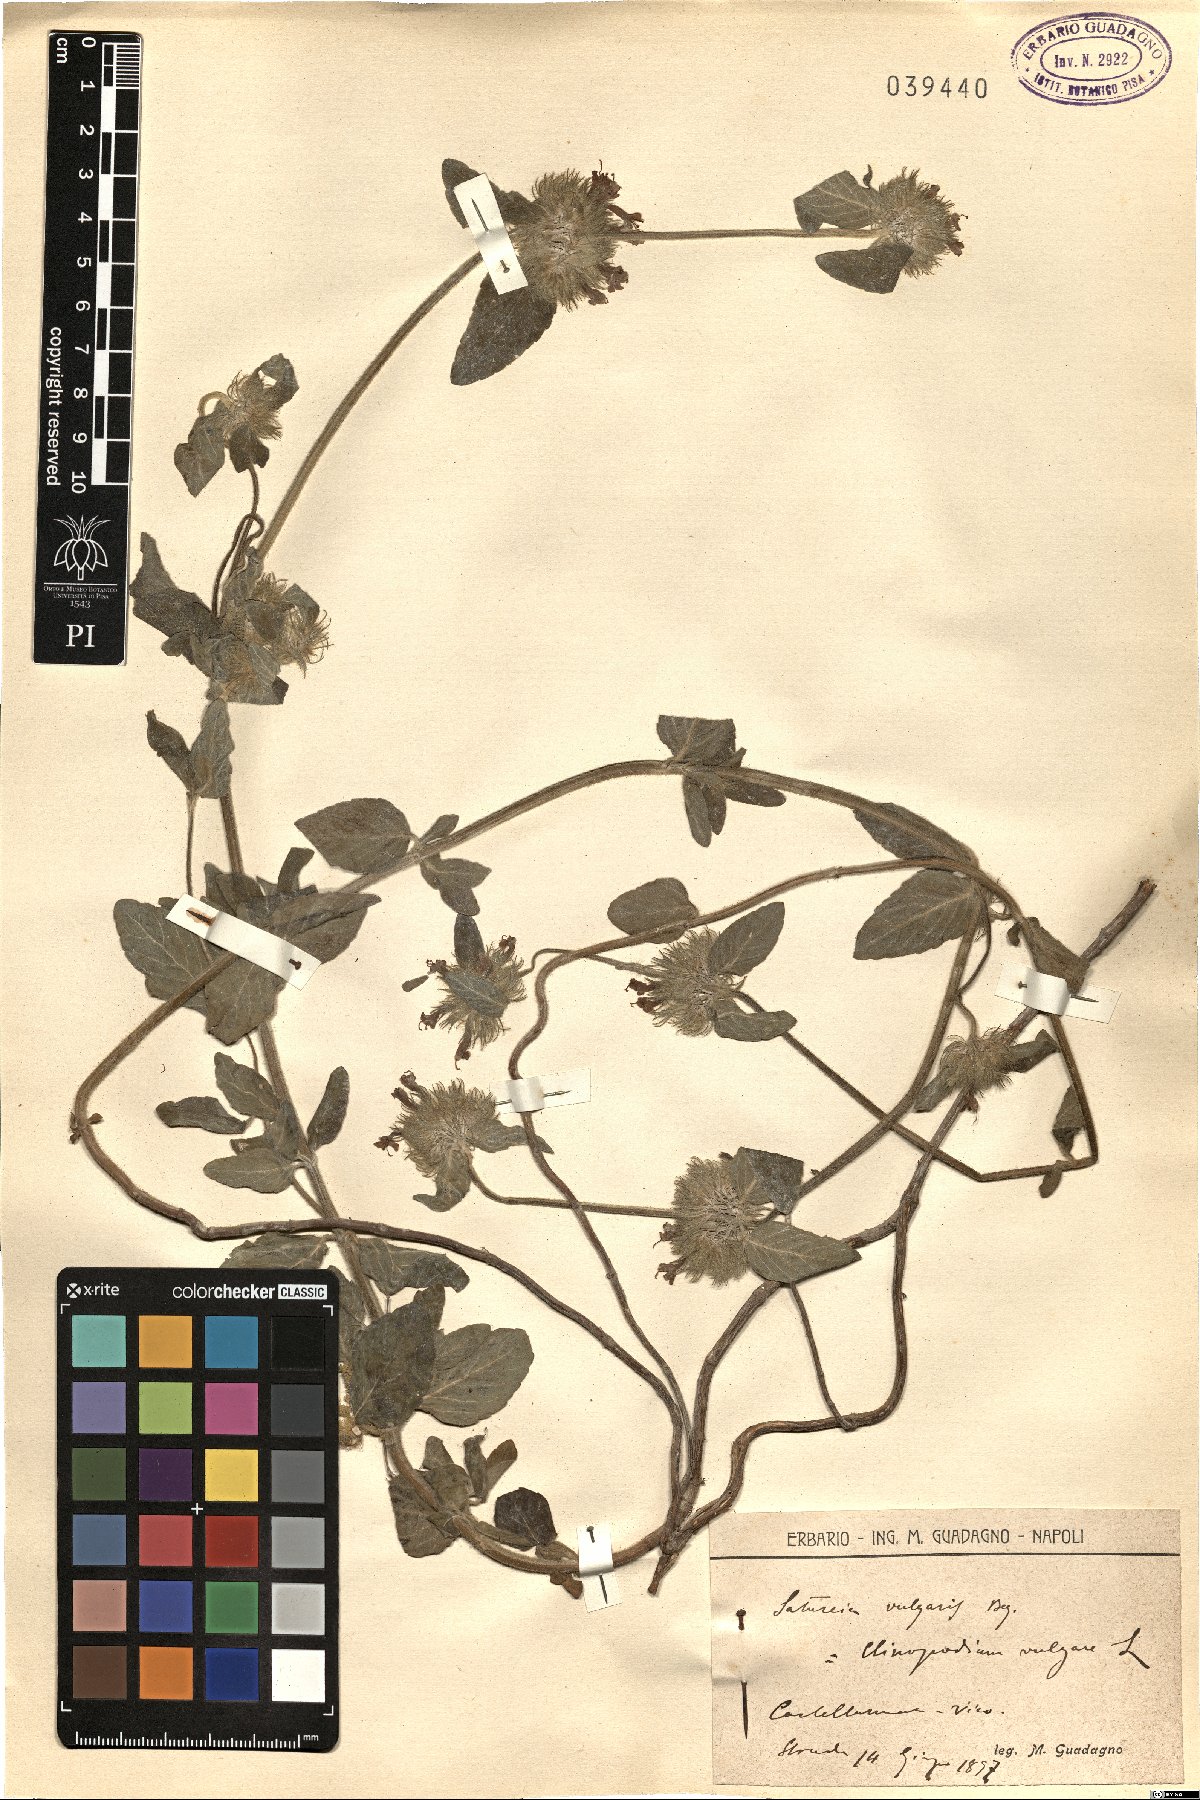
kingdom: Plantae
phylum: Tracheophyta
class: Magnoliopsida
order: Lamiales
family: Lamiaceae
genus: Clinopodium
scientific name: Clinopodium vulgare
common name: Wild basil
